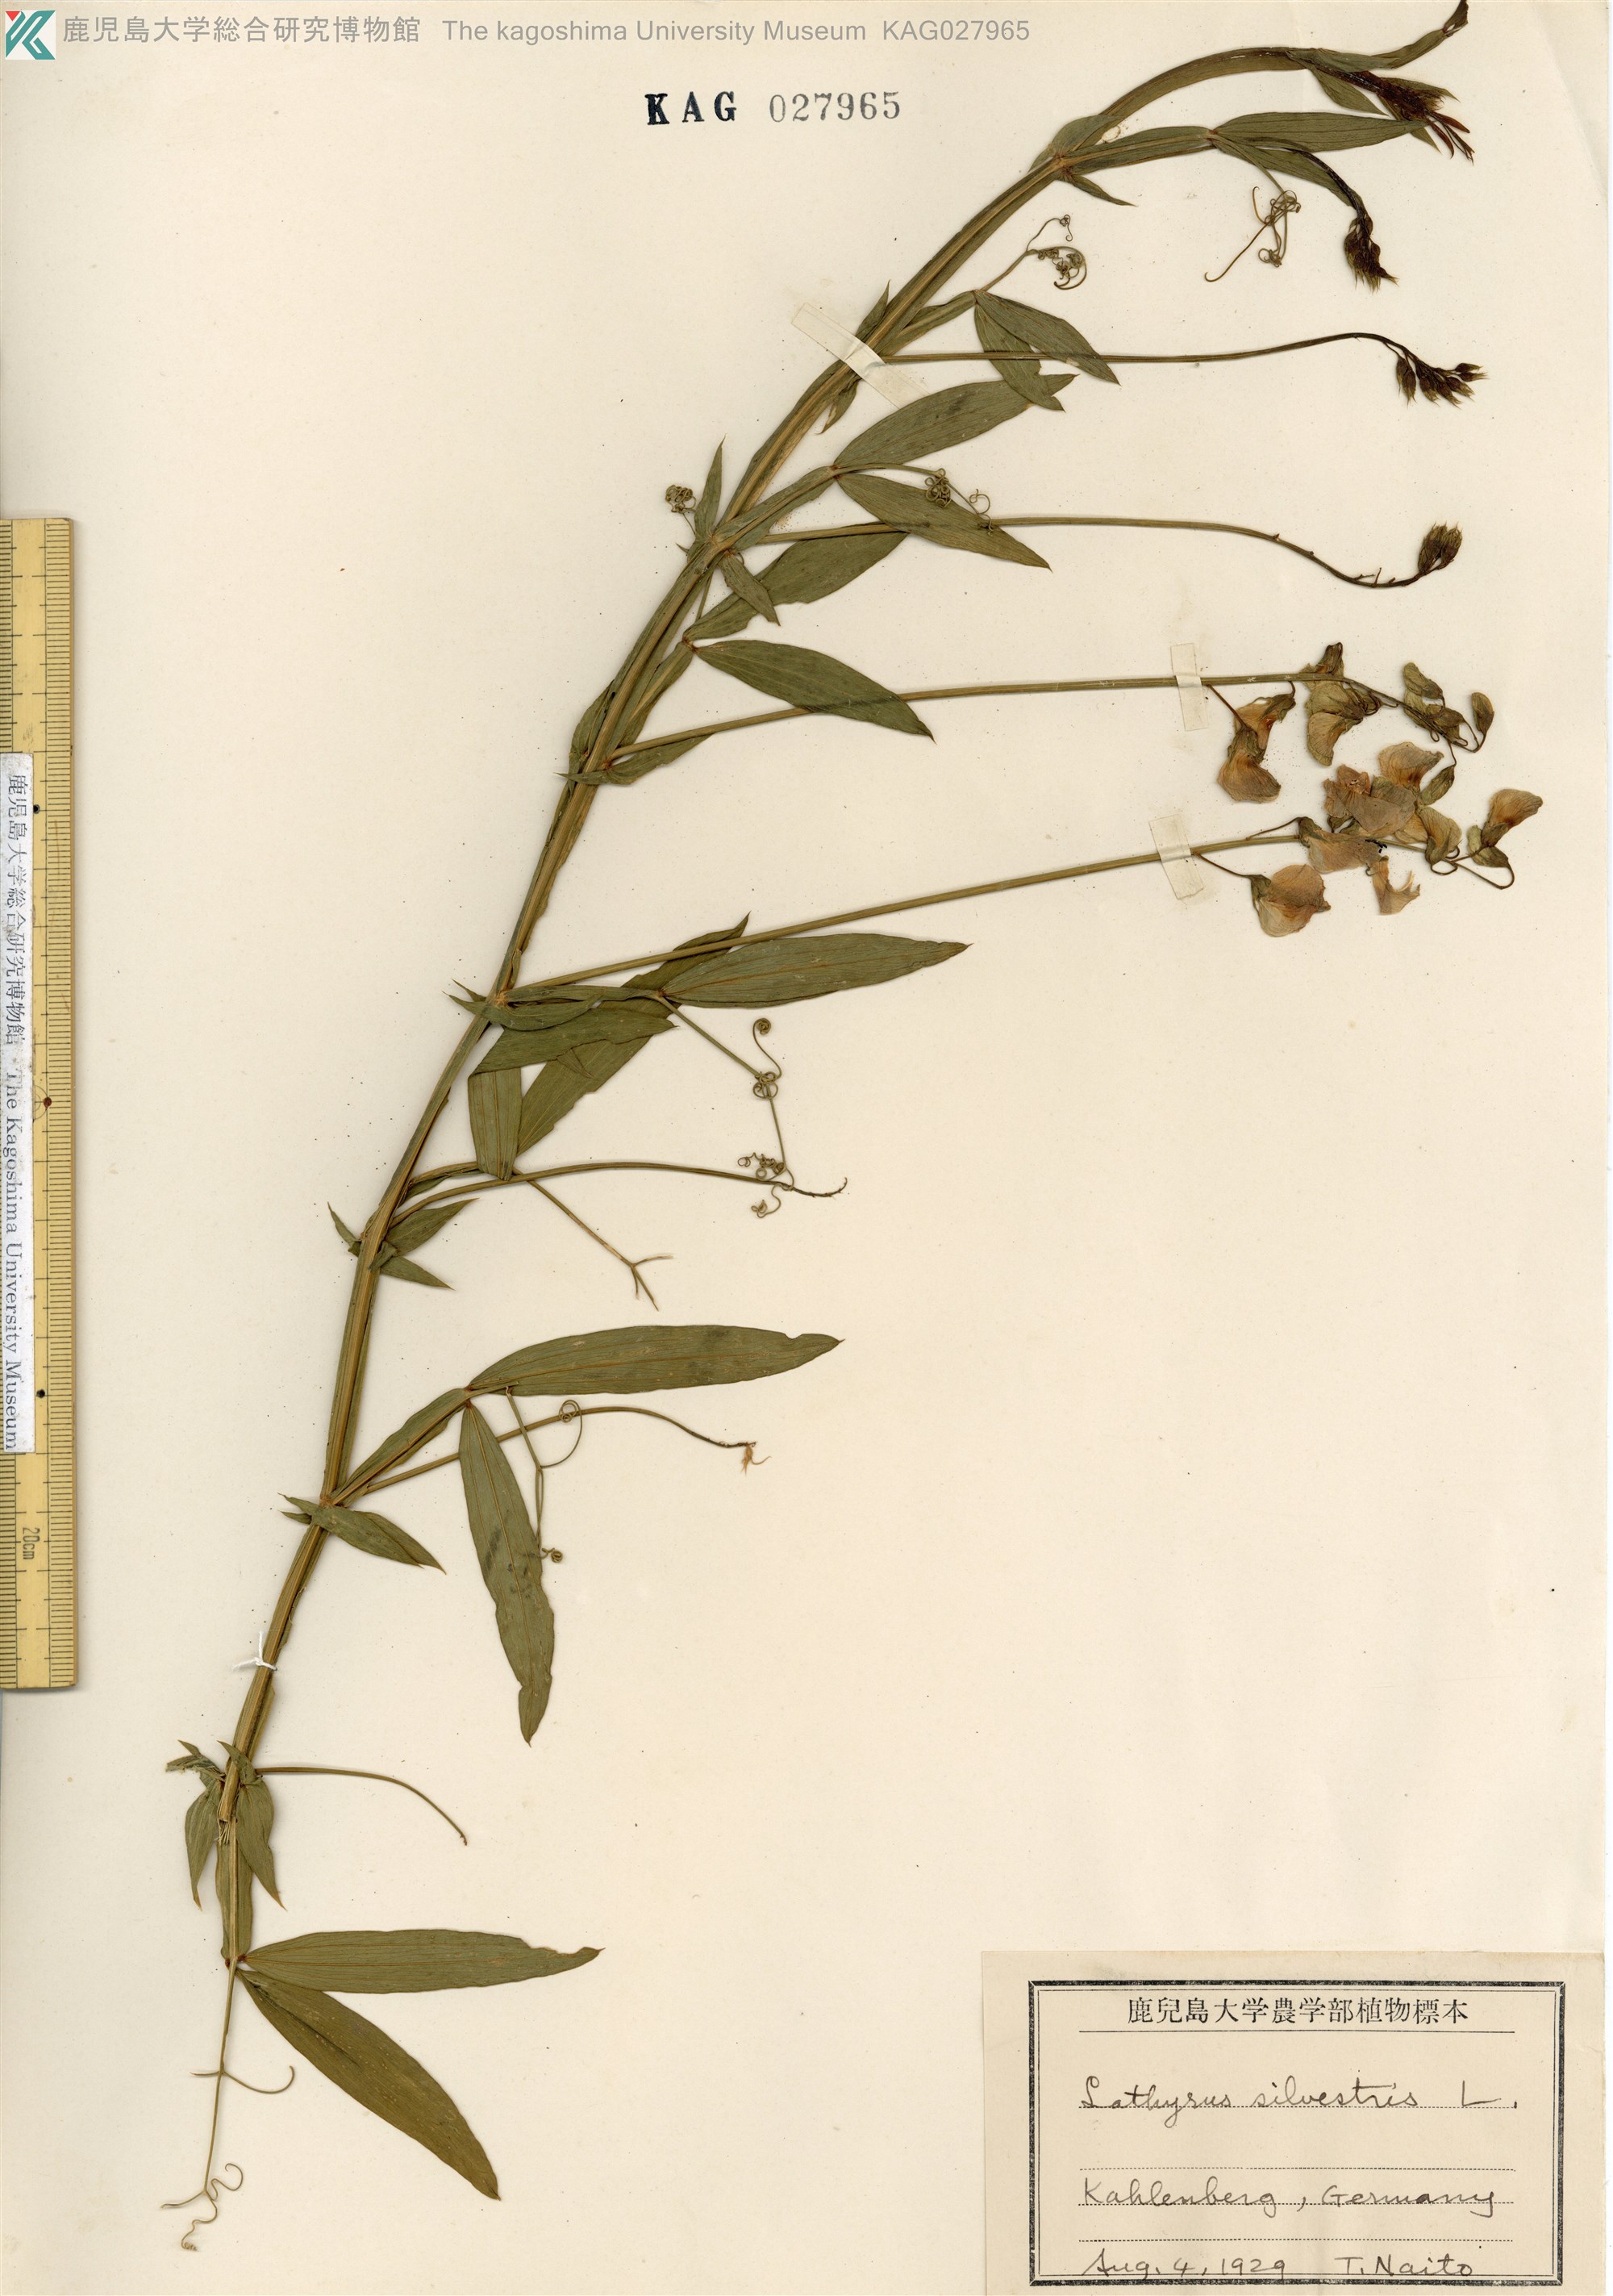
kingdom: Plantae
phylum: Tracheophyta
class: Magnoliopsida
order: Fabales
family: Fabaceae
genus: Lathyrus
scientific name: Lathyrus sylvestris
